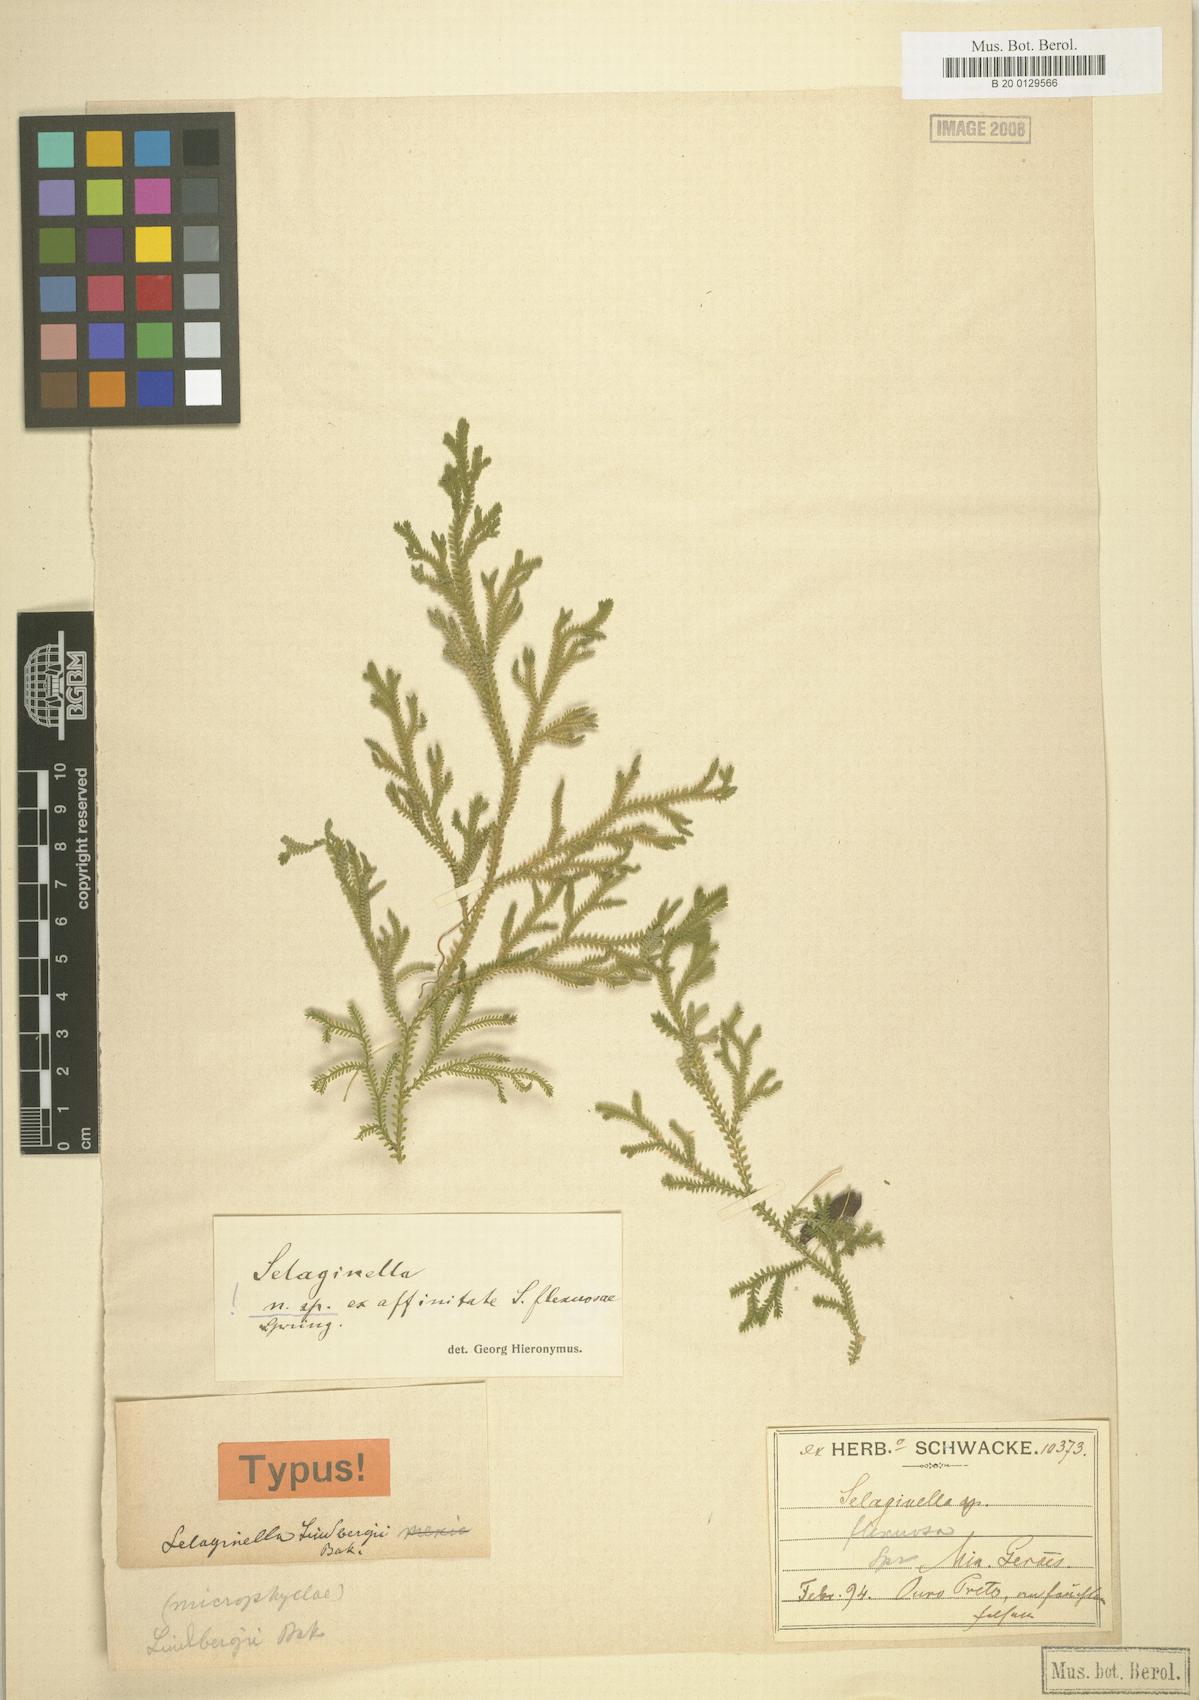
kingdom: Plantae
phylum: Tracheophyta
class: Lycopodiopsida
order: Selaginellales
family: Selaginellaceae
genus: Selaginella
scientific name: Selaginella macrostachya
